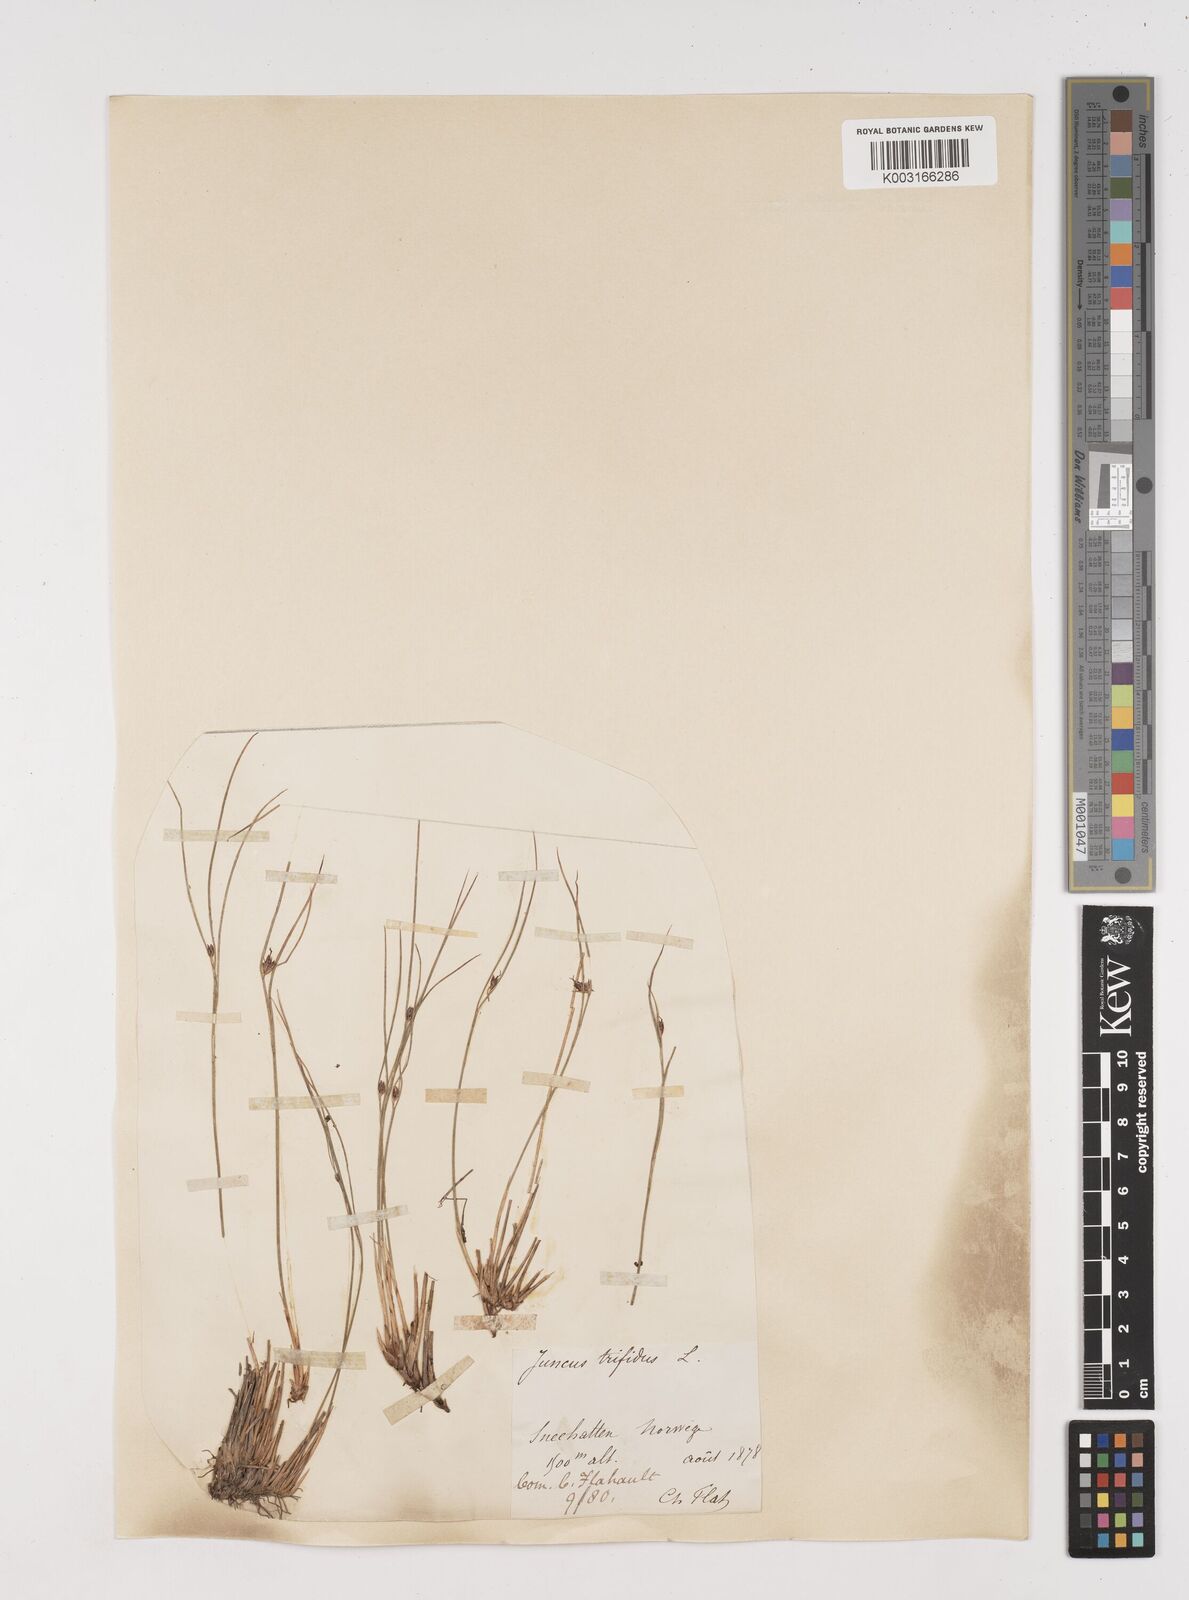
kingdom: Plantae
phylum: Tracheophyta
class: Liliopsida
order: Poales
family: Juncaceae
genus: Oreojuncus
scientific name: Oreojuncus trifidus
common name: Highland rush
